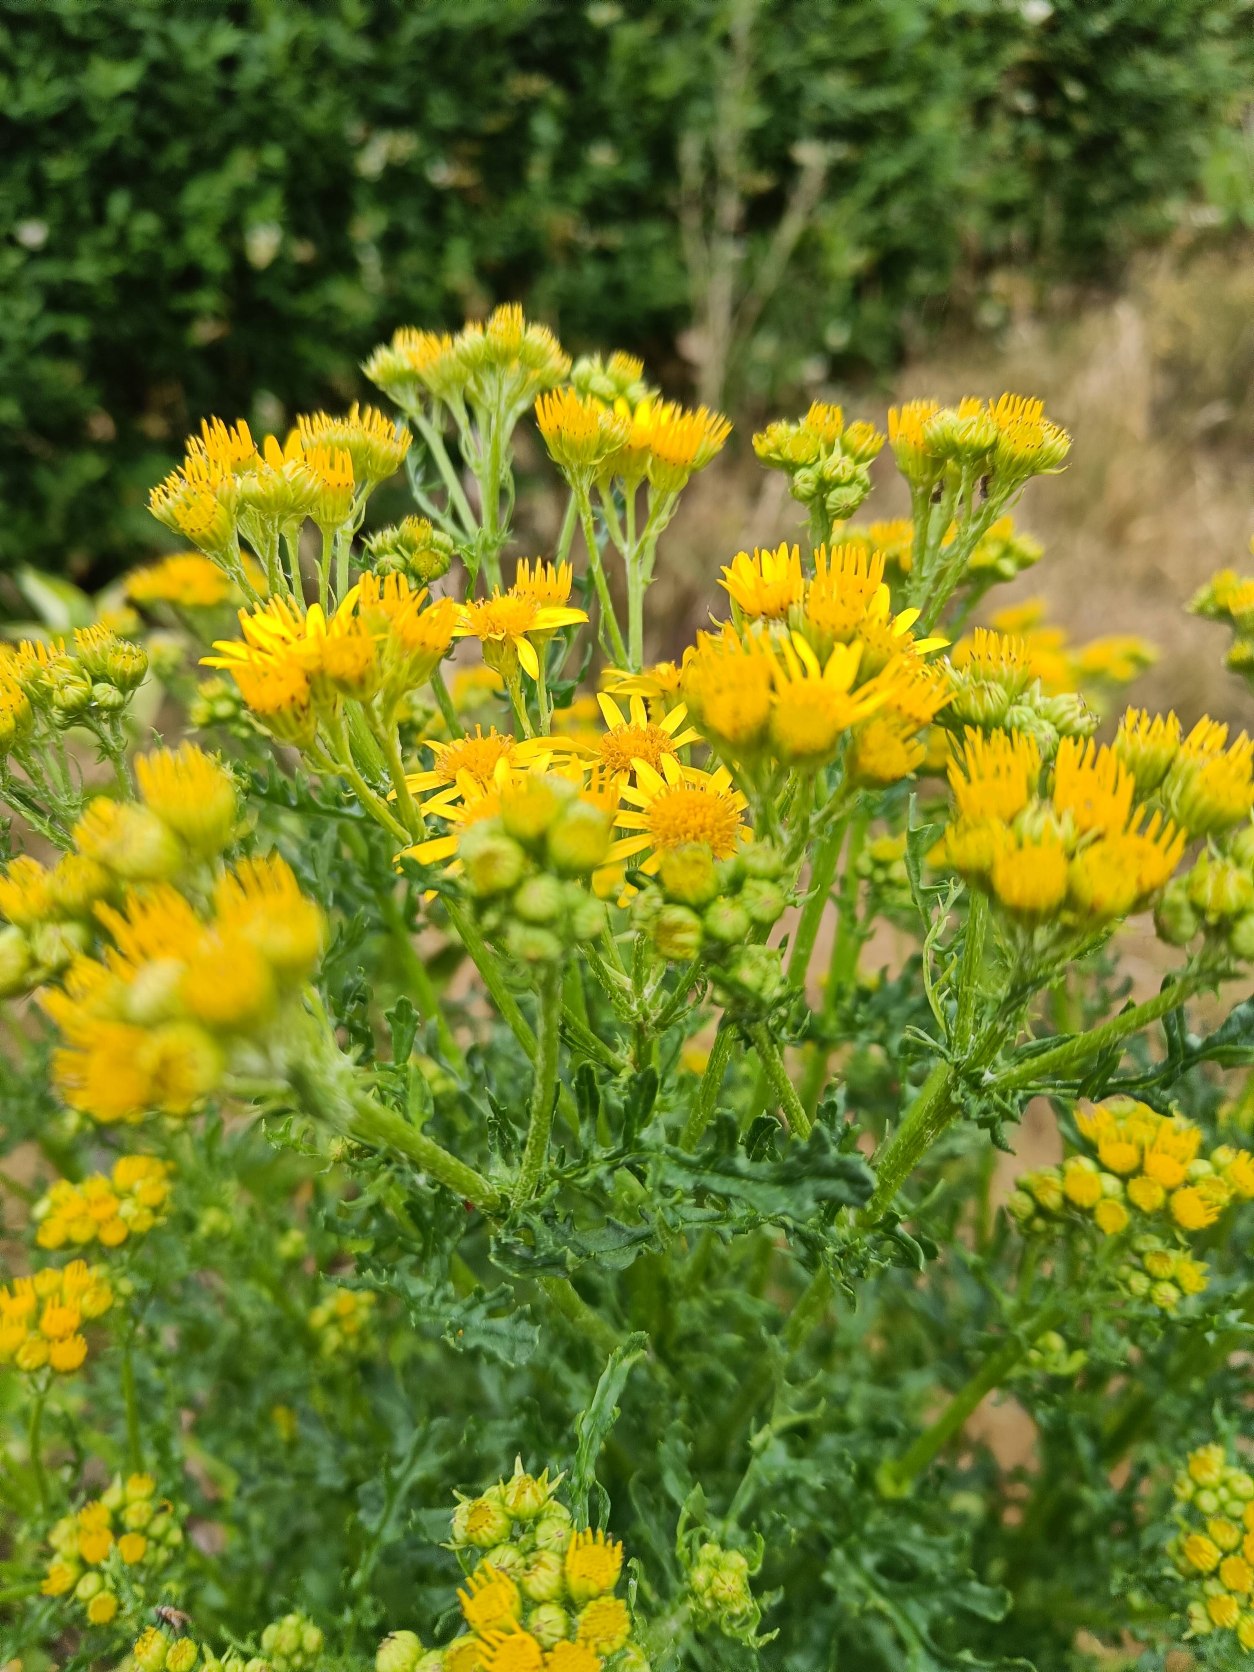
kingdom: Plantae
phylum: Tracheophyta
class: Magnoliopsida
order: Asterales
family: Asteraceae
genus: Jacobaea
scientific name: Jacobaea vulgaris
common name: Eng-brandbæger
